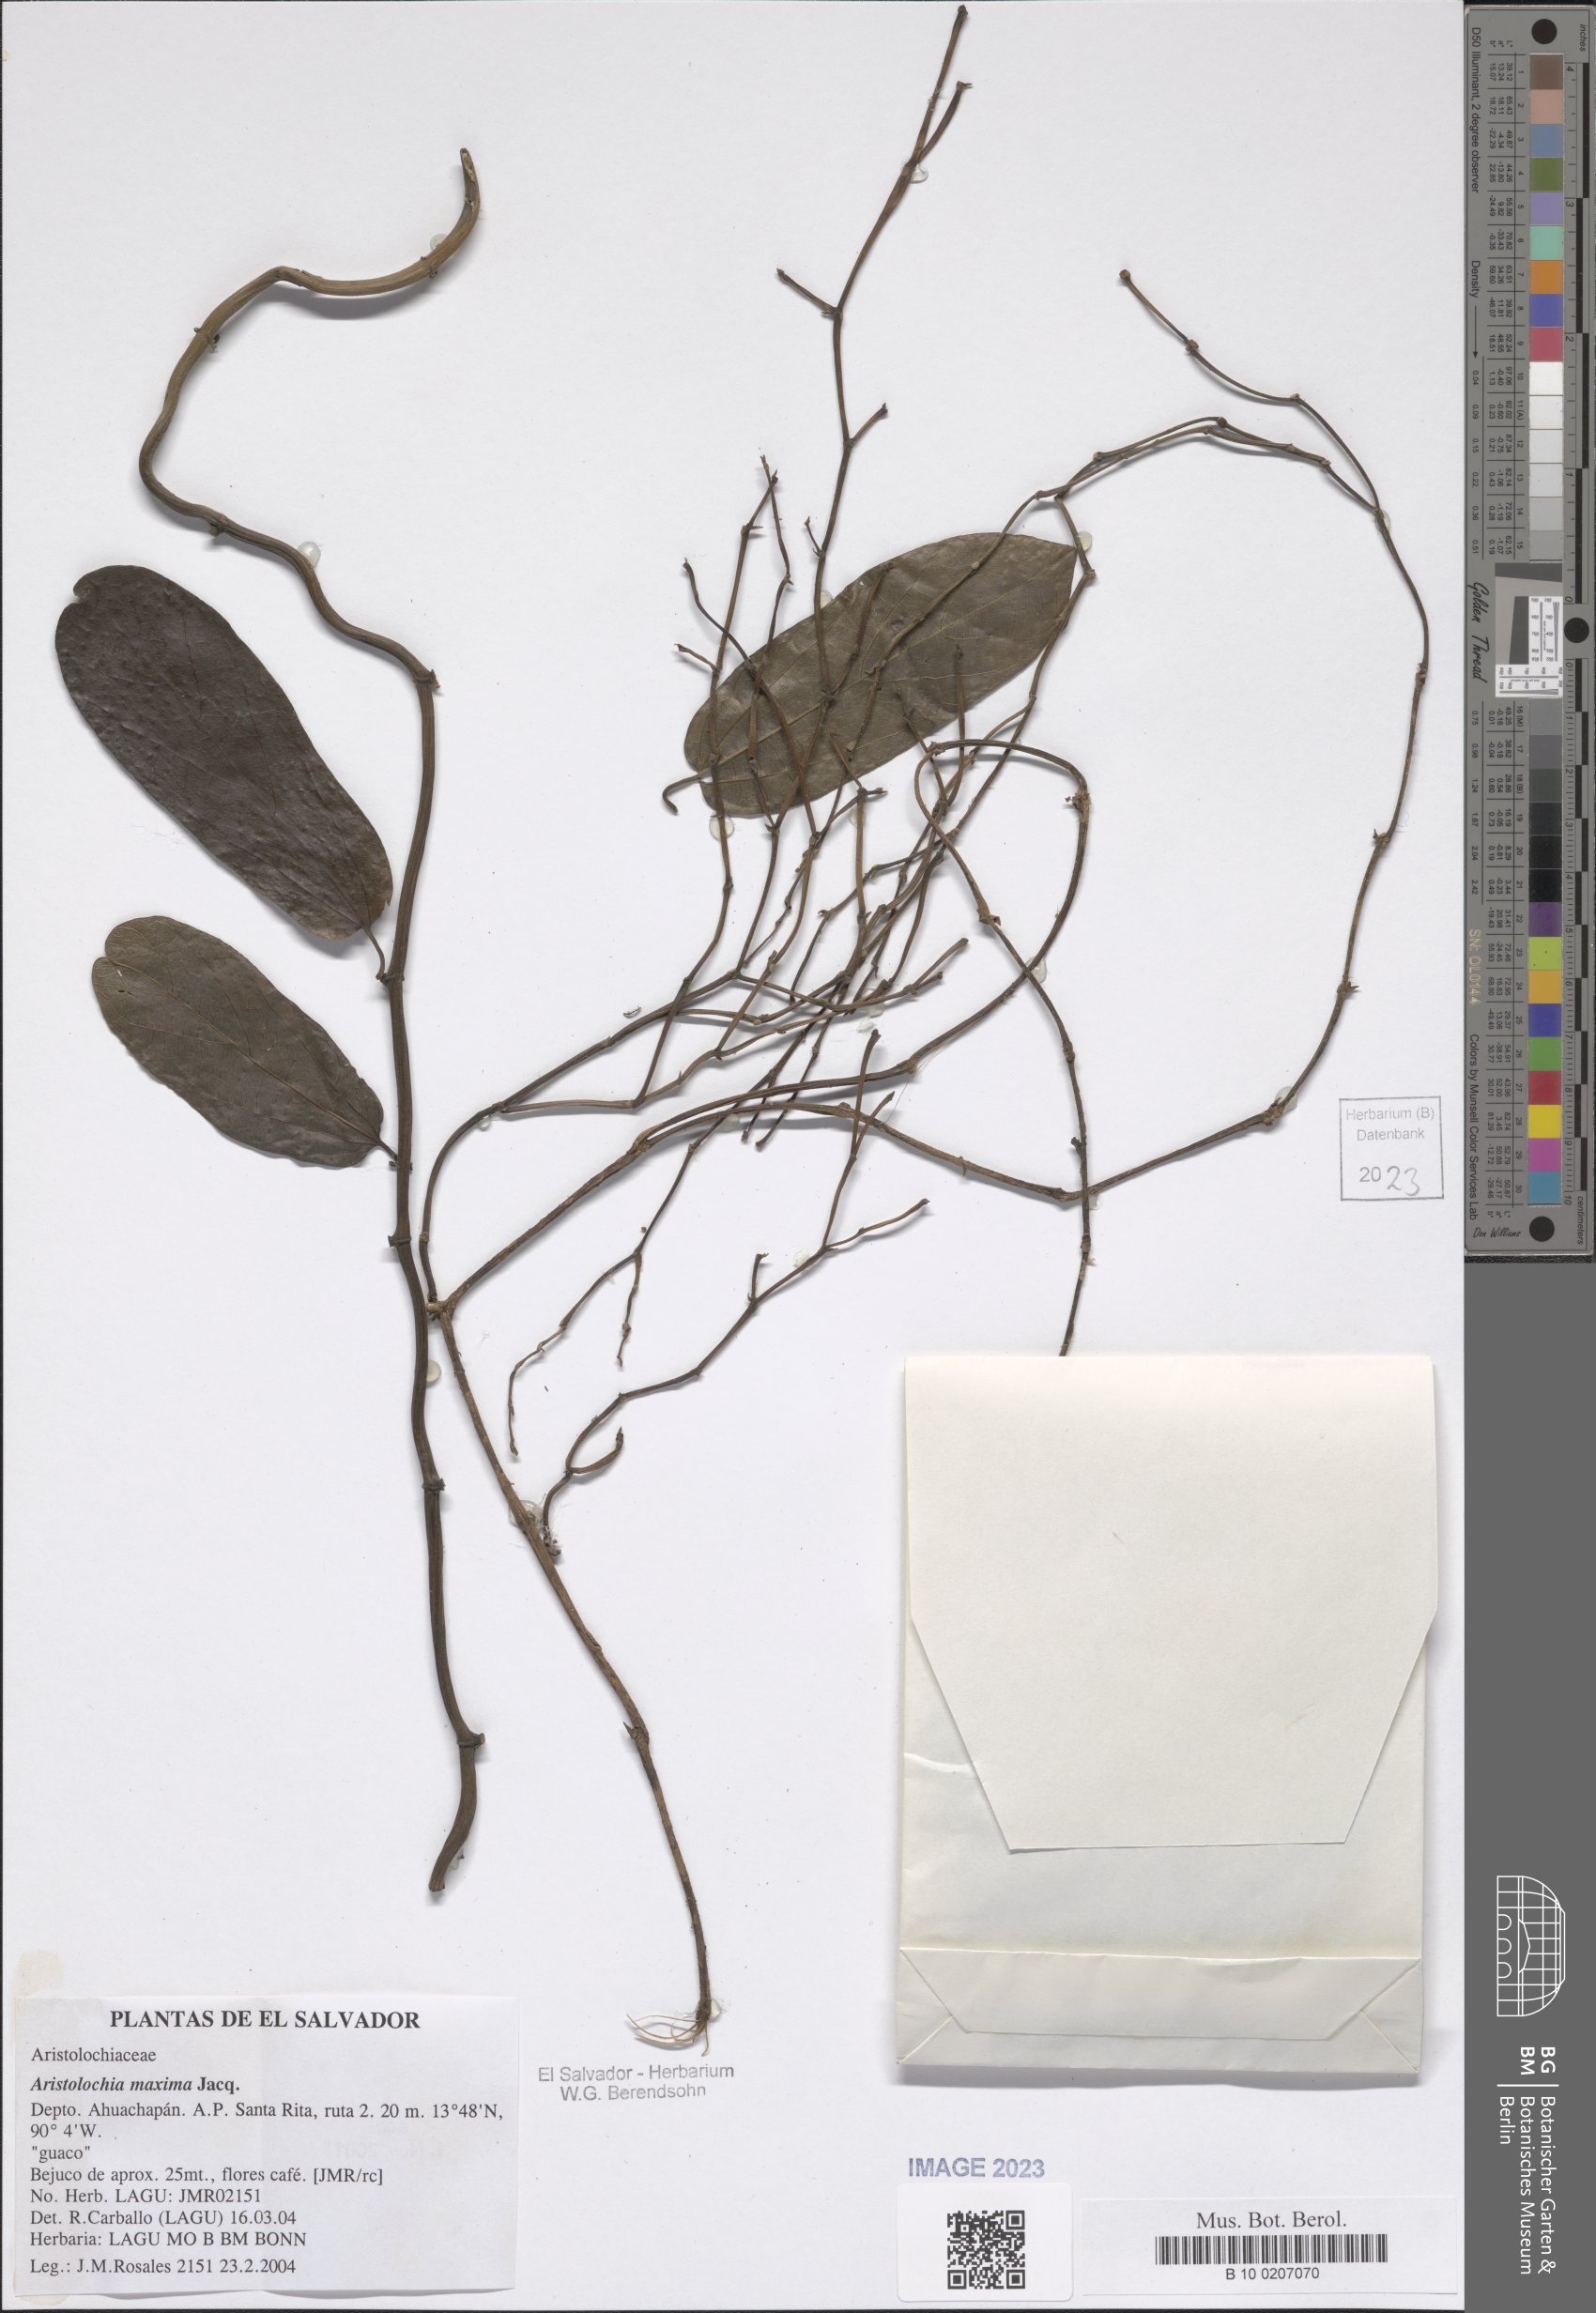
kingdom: Plantae
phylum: Tracheophyta
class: Magnoliopsida
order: Piperales
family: Aristolochiaceae
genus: Aristolochia
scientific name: Aristolochia maxima
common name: Florida dutchman's pipe
